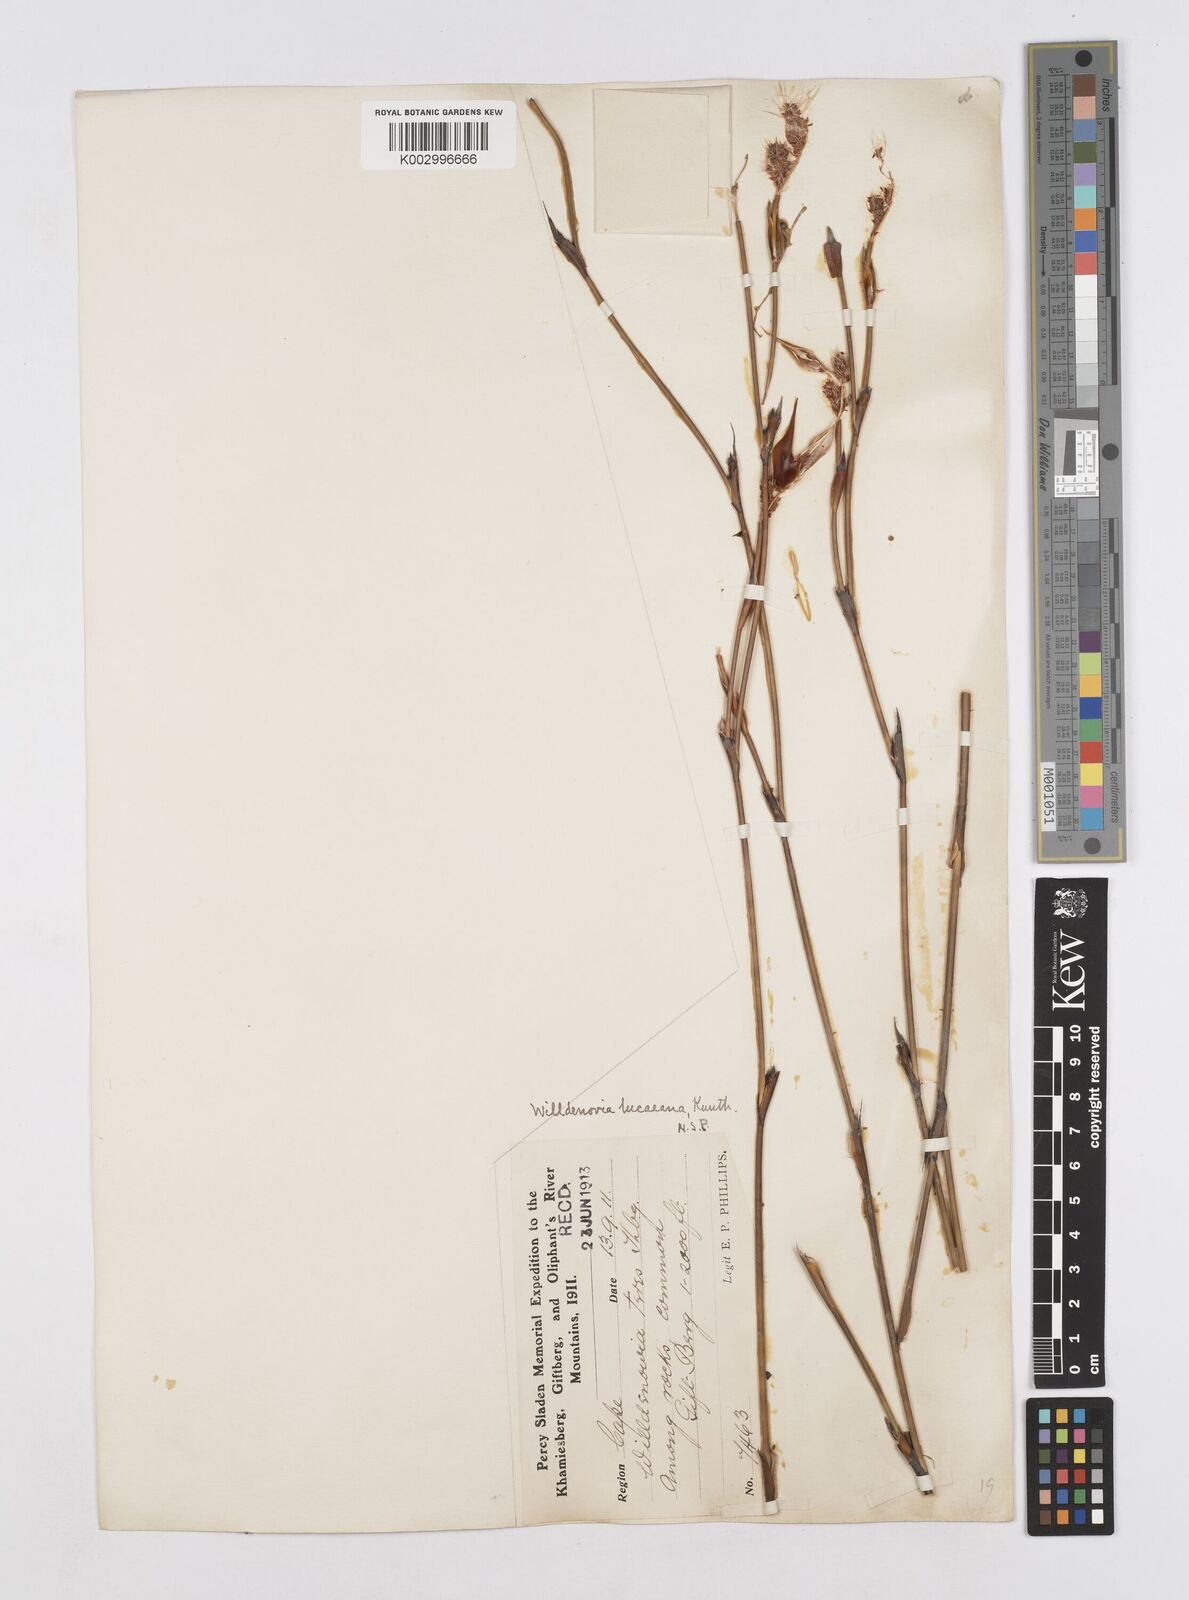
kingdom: Plantae
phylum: Tracheophyta
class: Liliopsida
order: Poales
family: Restionaceae
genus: Willdenowia
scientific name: Willdenowia glomerata
